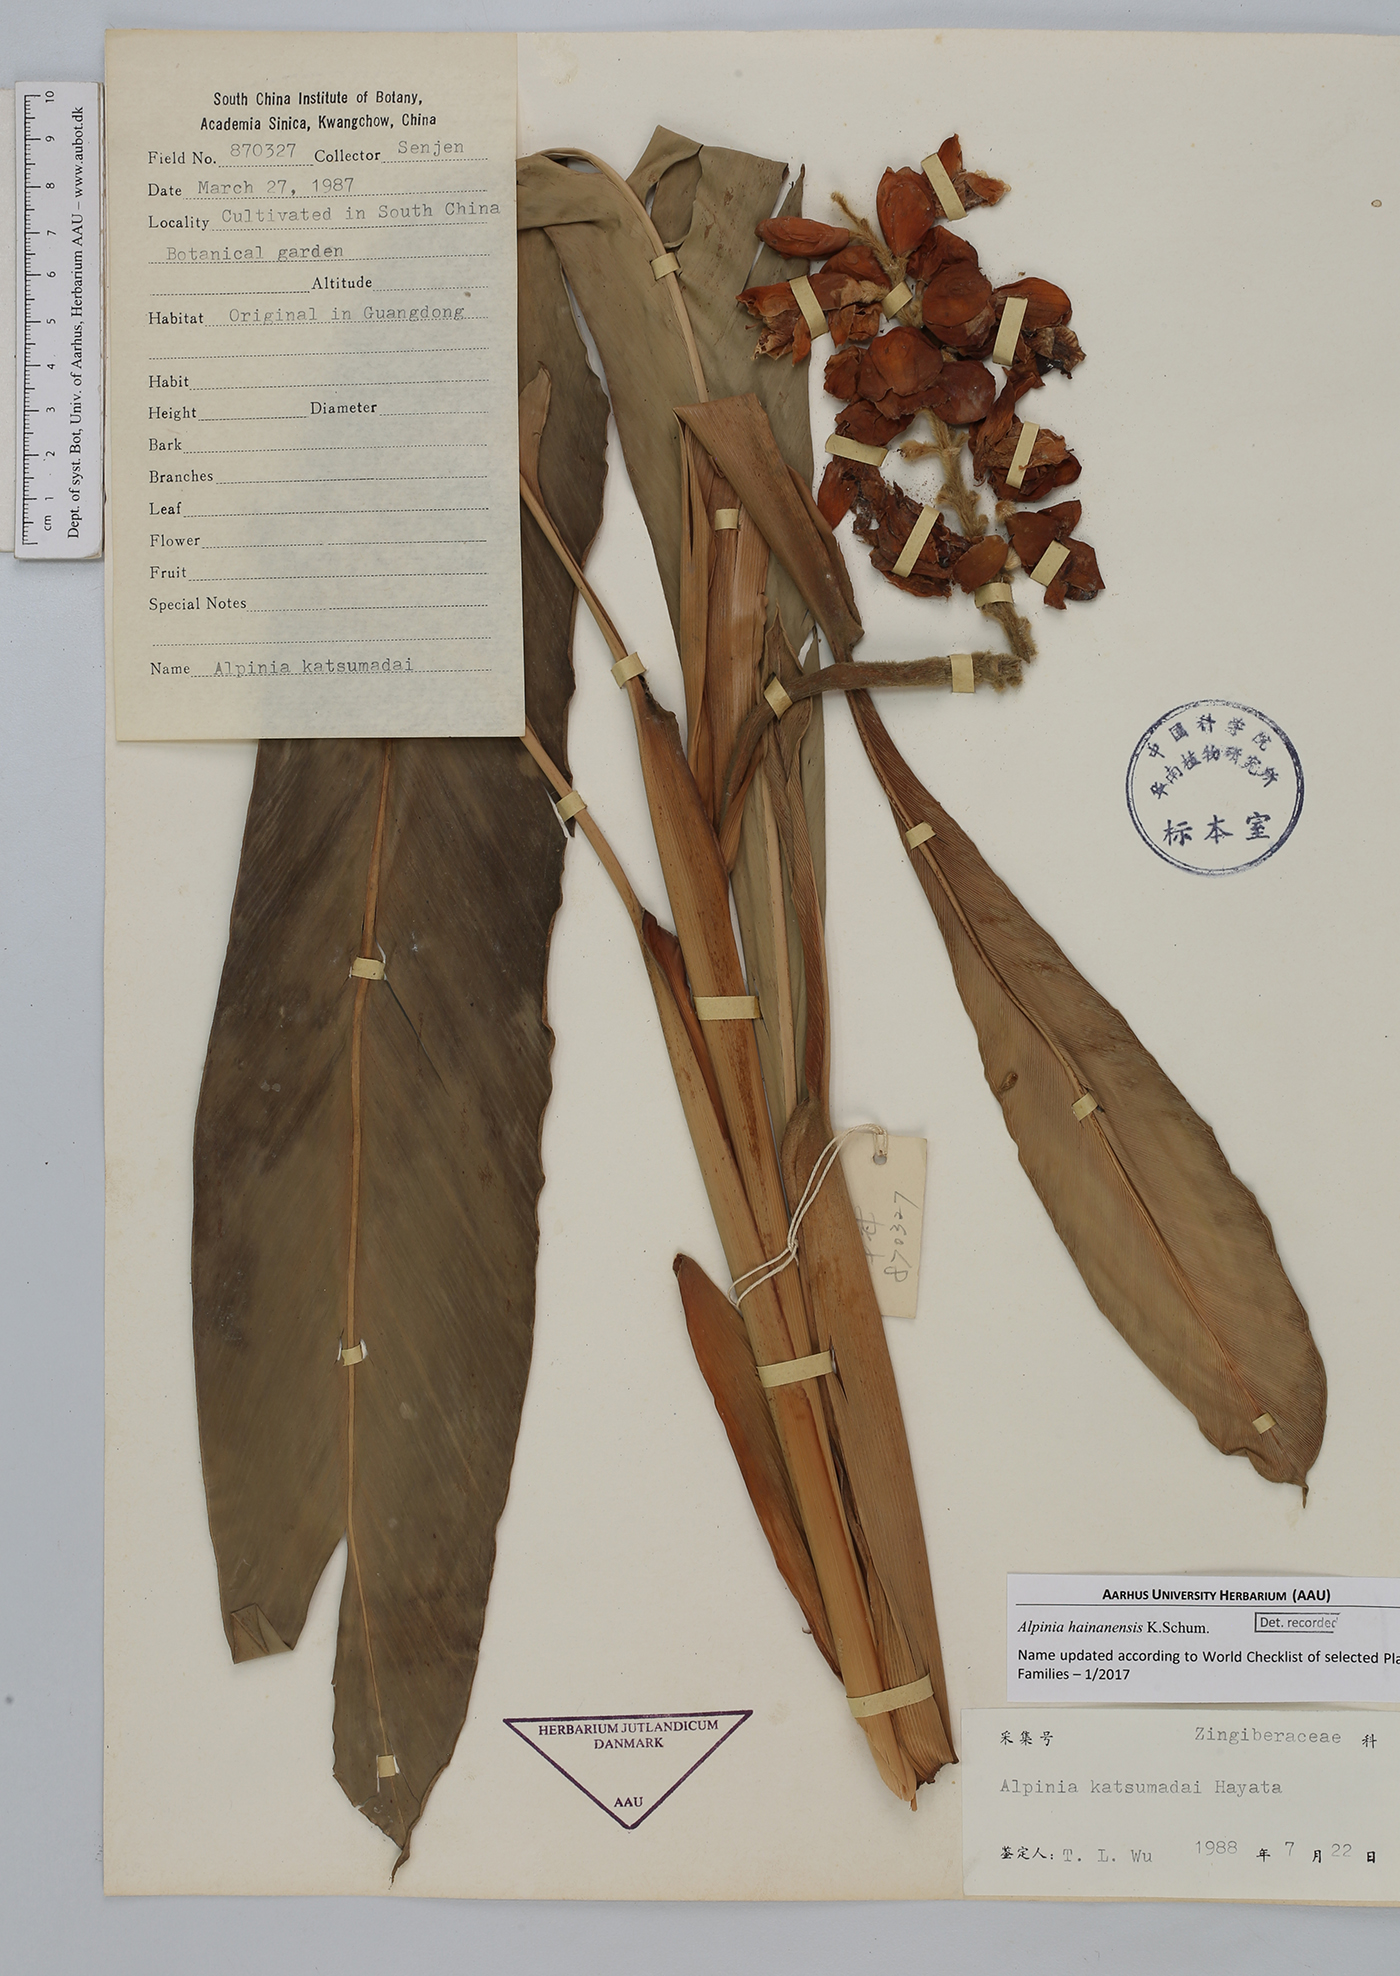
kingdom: Plantae
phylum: Tracheophyta
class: Liliopsida
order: Zingiberales
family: Zingiberaceae
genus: Alpinia
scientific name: Alpinia hainanensis
